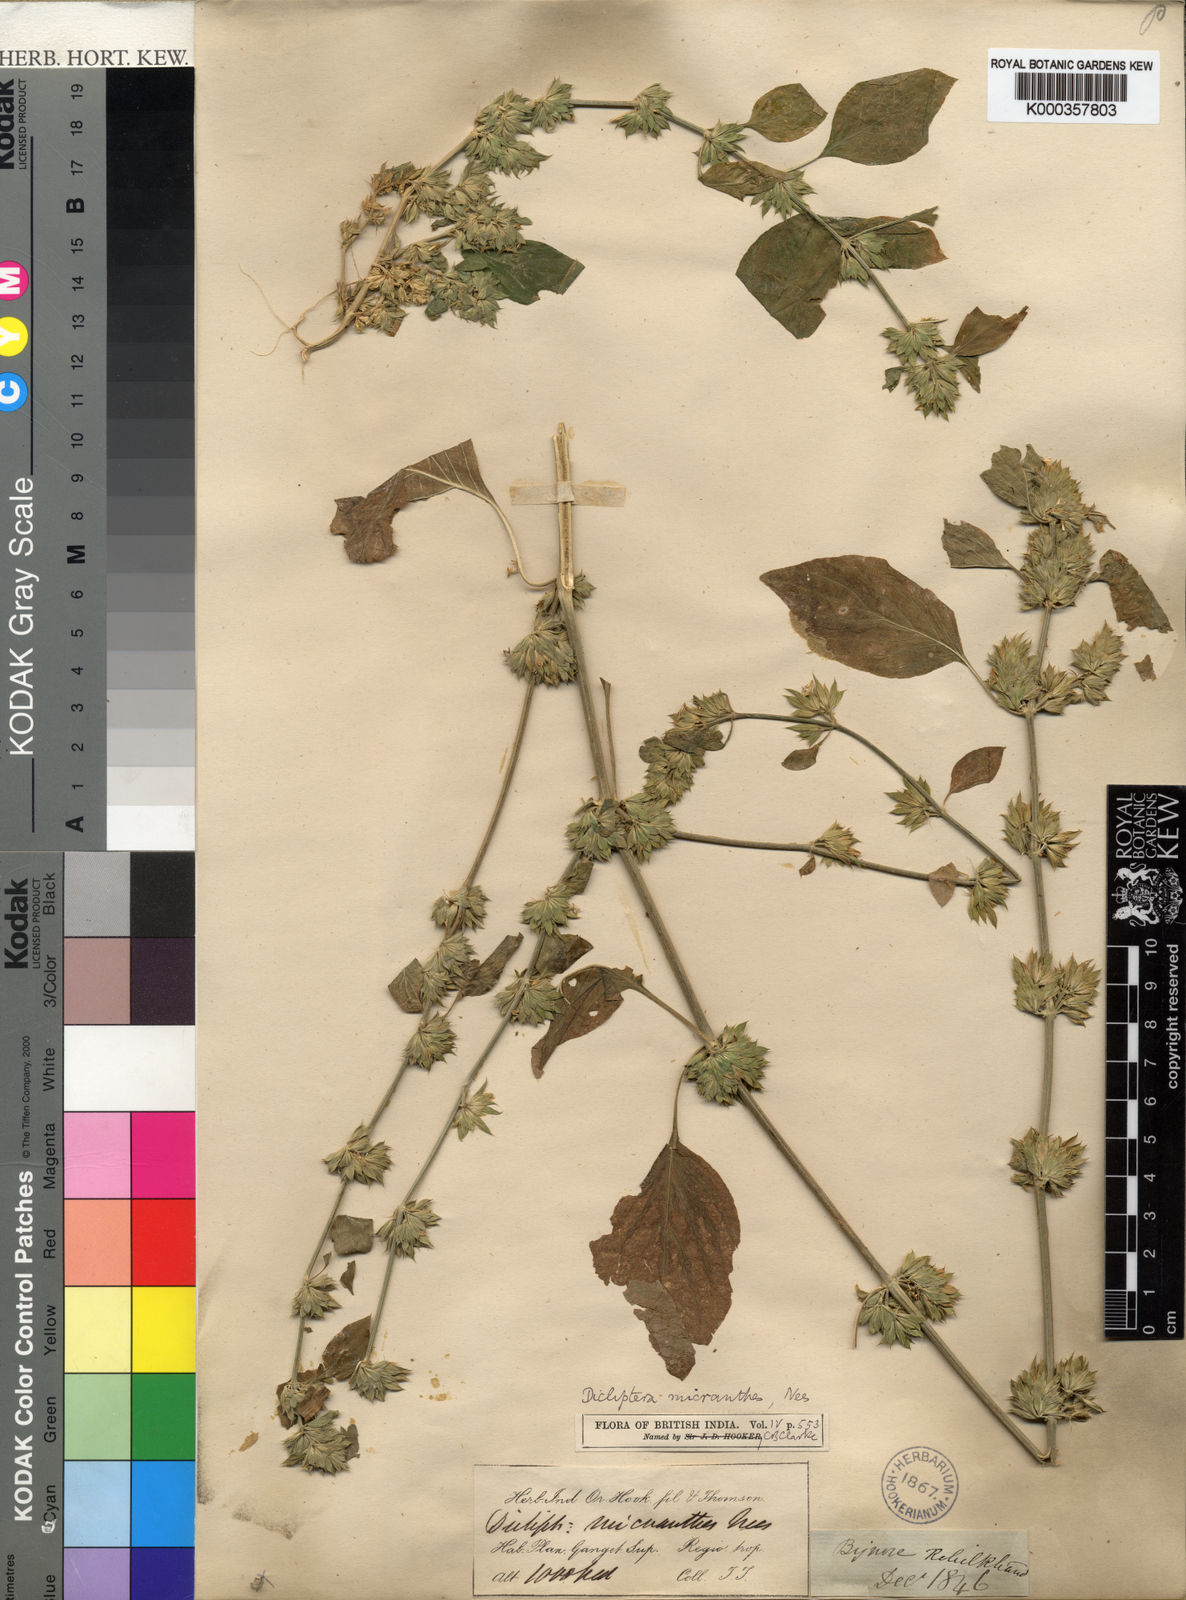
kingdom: Plantae
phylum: Tracheophyta
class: Magnoliopsida
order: Lamiales
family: Acanthaceae
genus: Dicliptera
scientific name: Dicliptera
